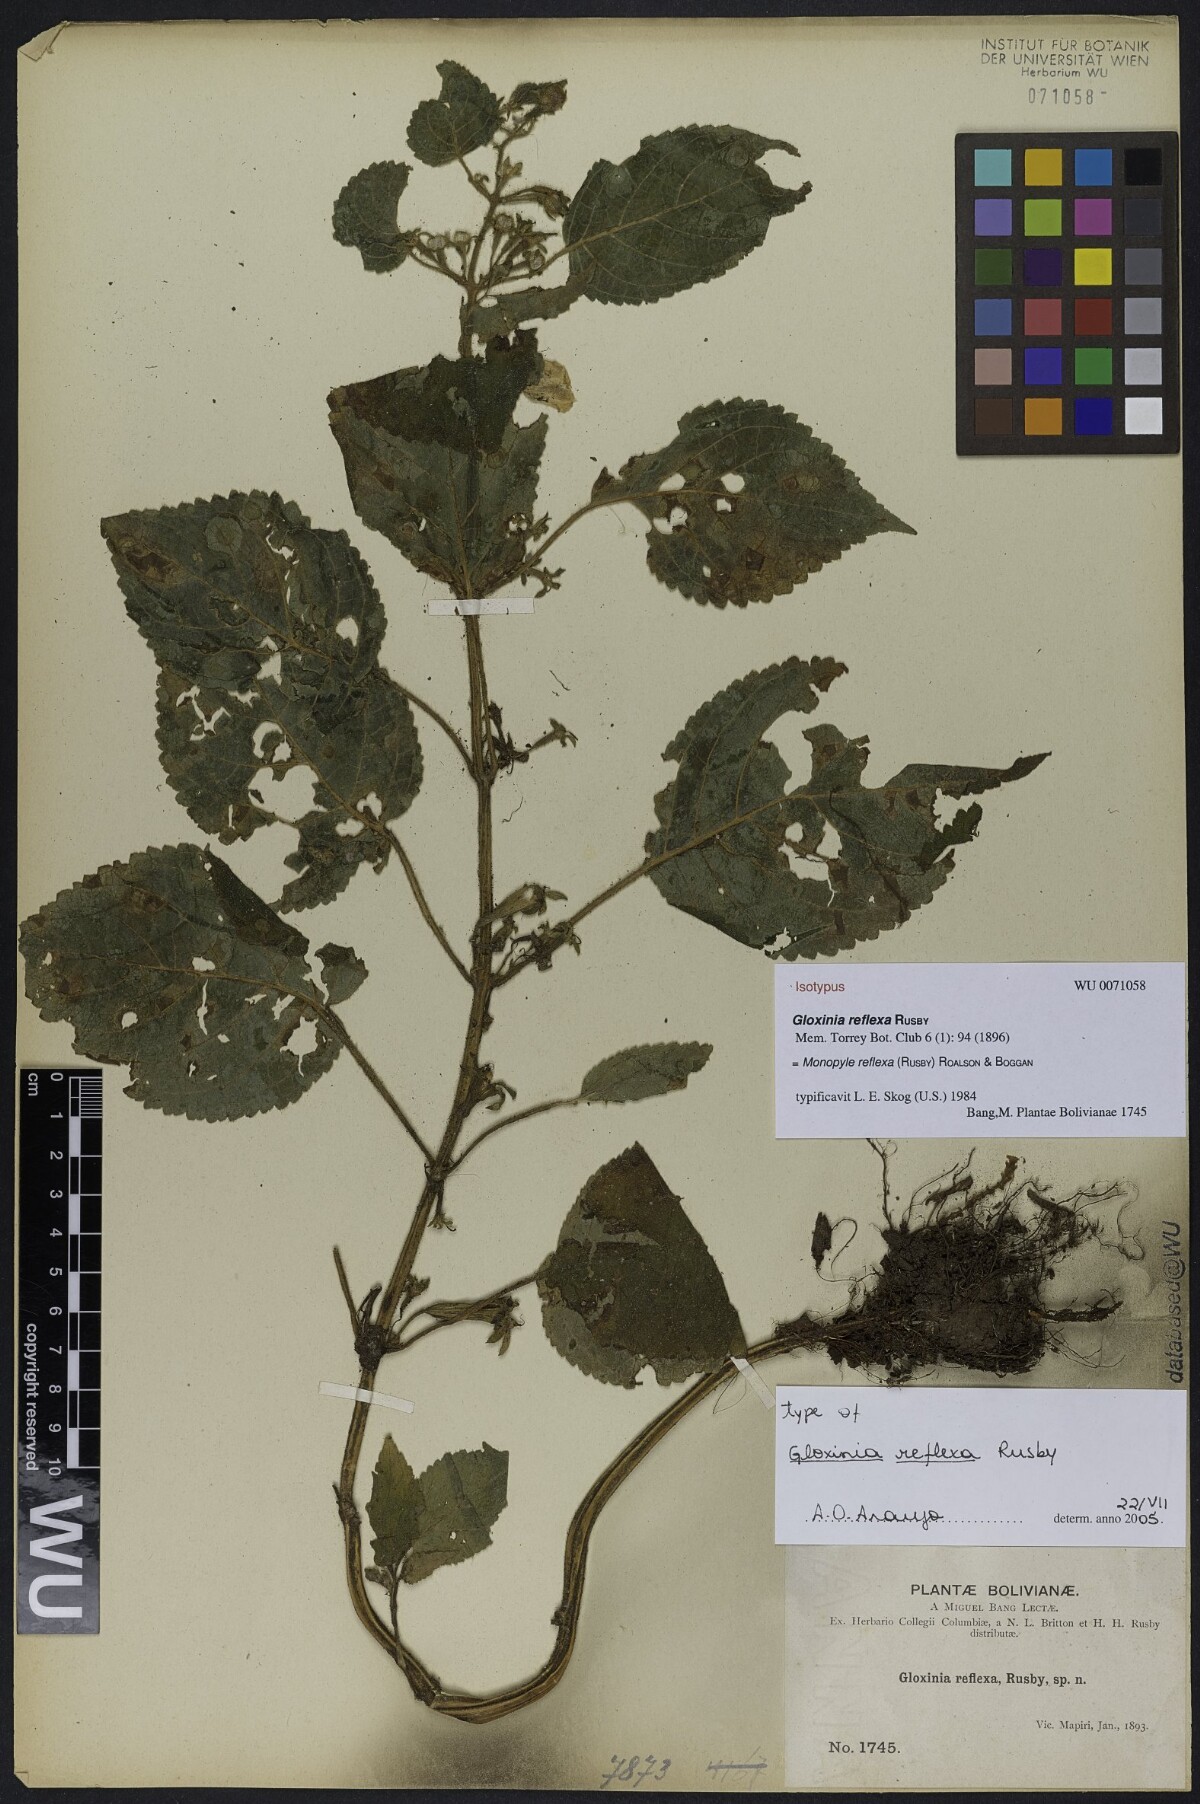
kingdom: Plantae
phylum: Tracheophyta
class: Magnoliopsida
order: Lamiales
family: Gesneriaceae
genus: Monopyle
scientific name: Monopyle reflexa
